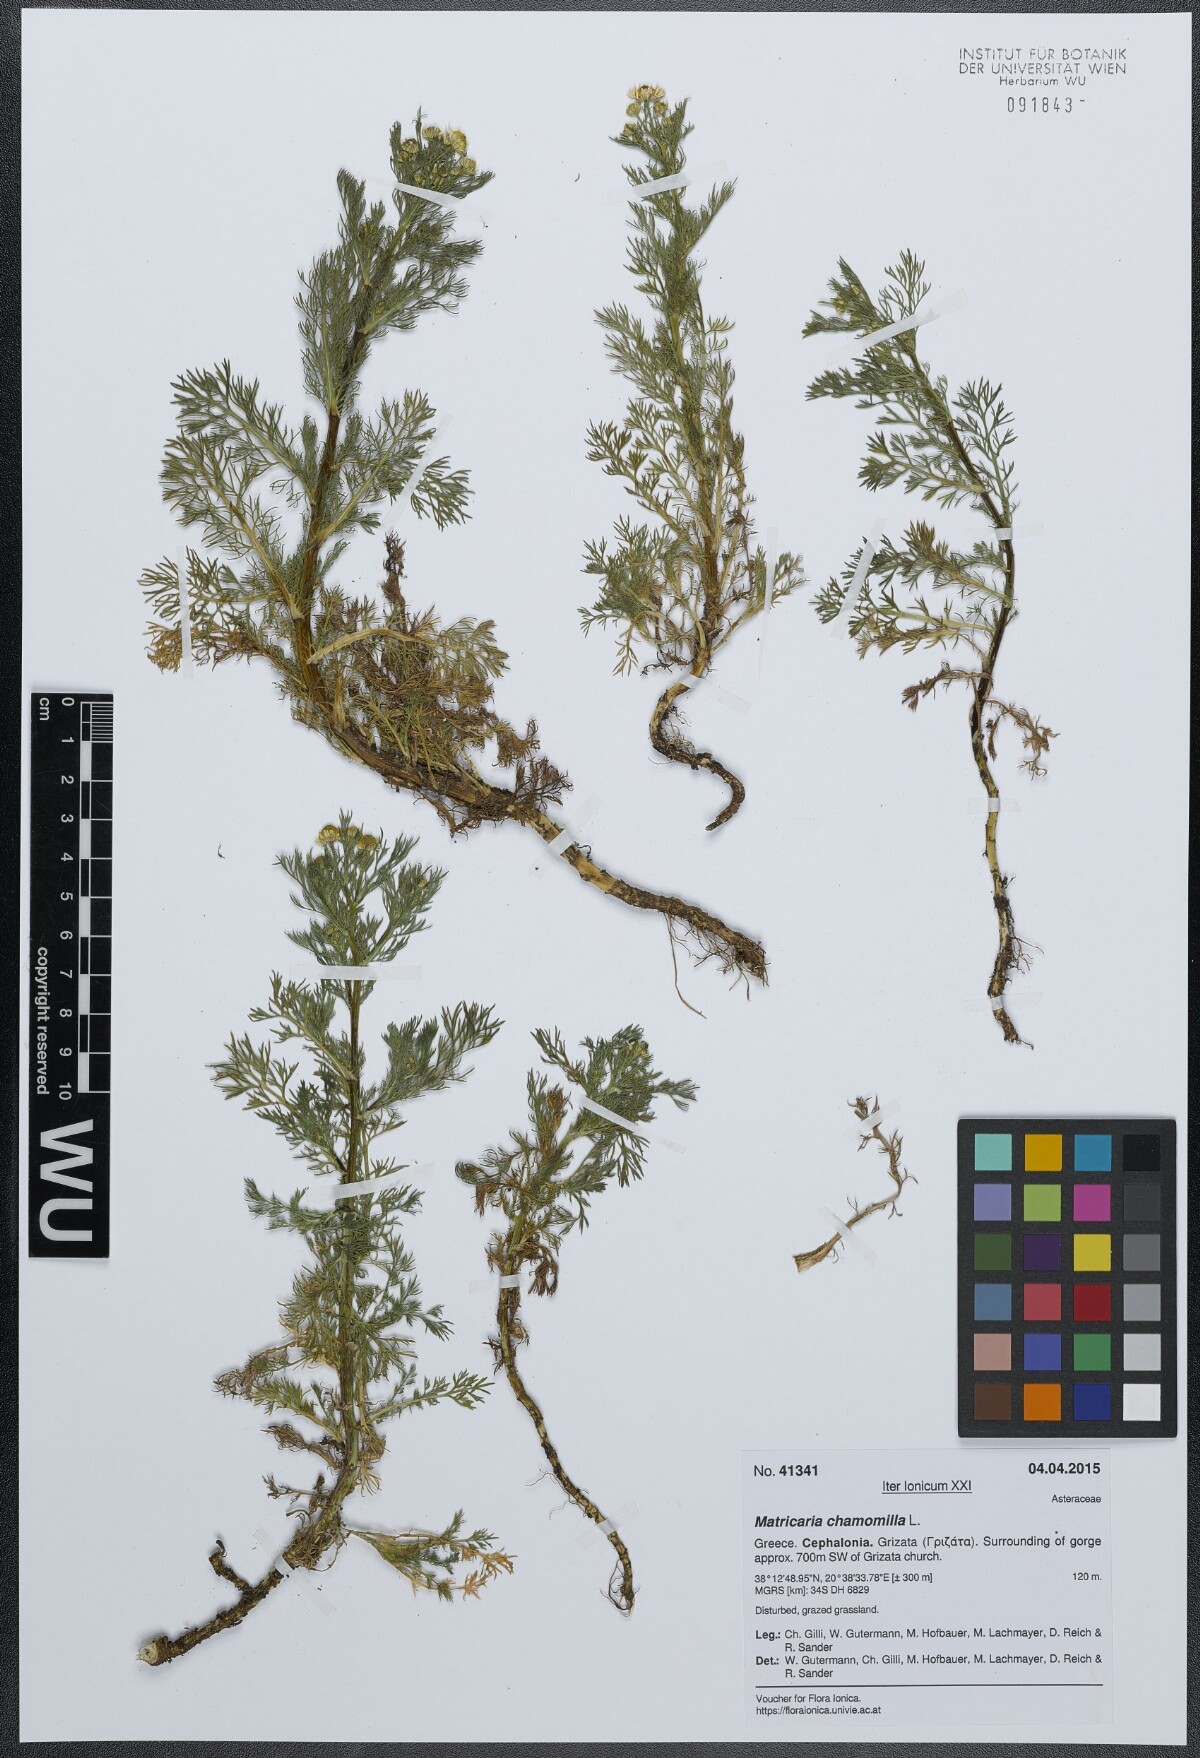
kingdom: Plantae
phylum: Tracheophyta
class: Magnoliopsida
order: Asterales
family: Asteraceae
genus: Matricaria
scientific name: Matricaria chamomilla
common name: Scented mayweed
